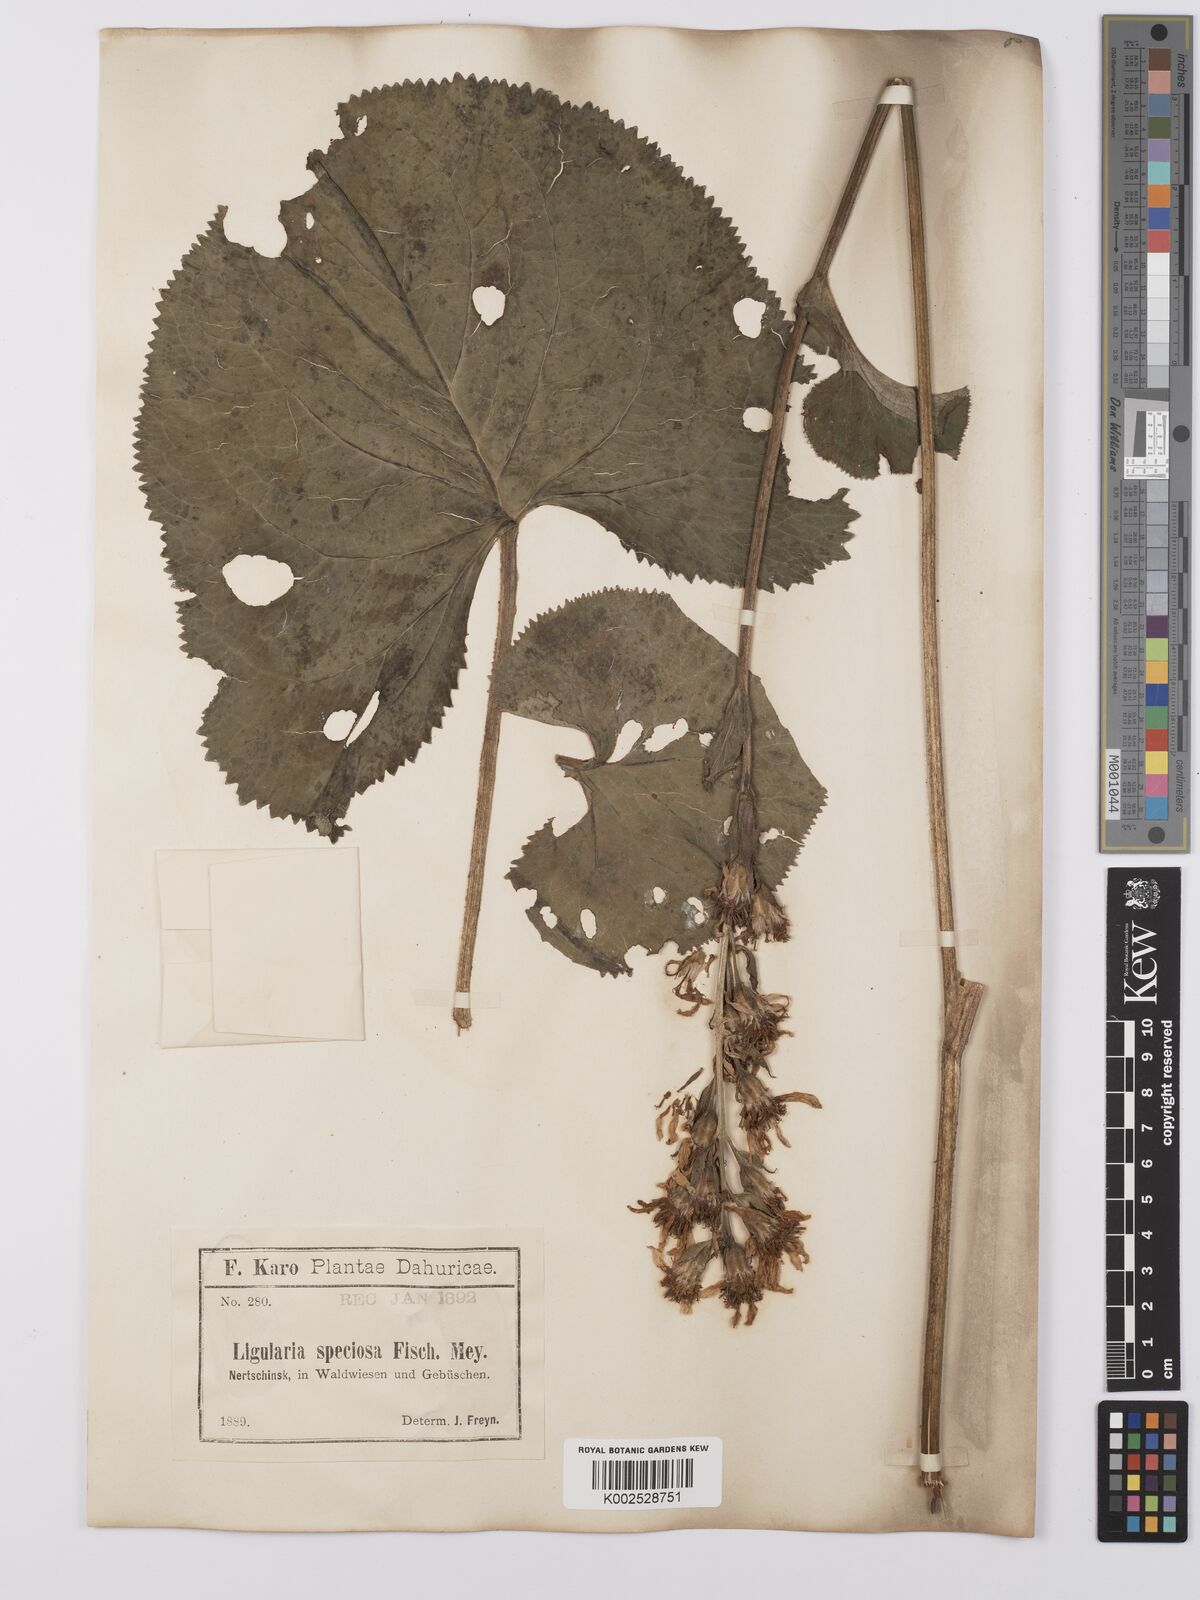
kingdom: Plantae
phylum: Tracheophyta
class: Magnoliopsida
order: Asterales
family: Asteraceae
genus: Ligularia
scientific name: Ligularia fischeri
